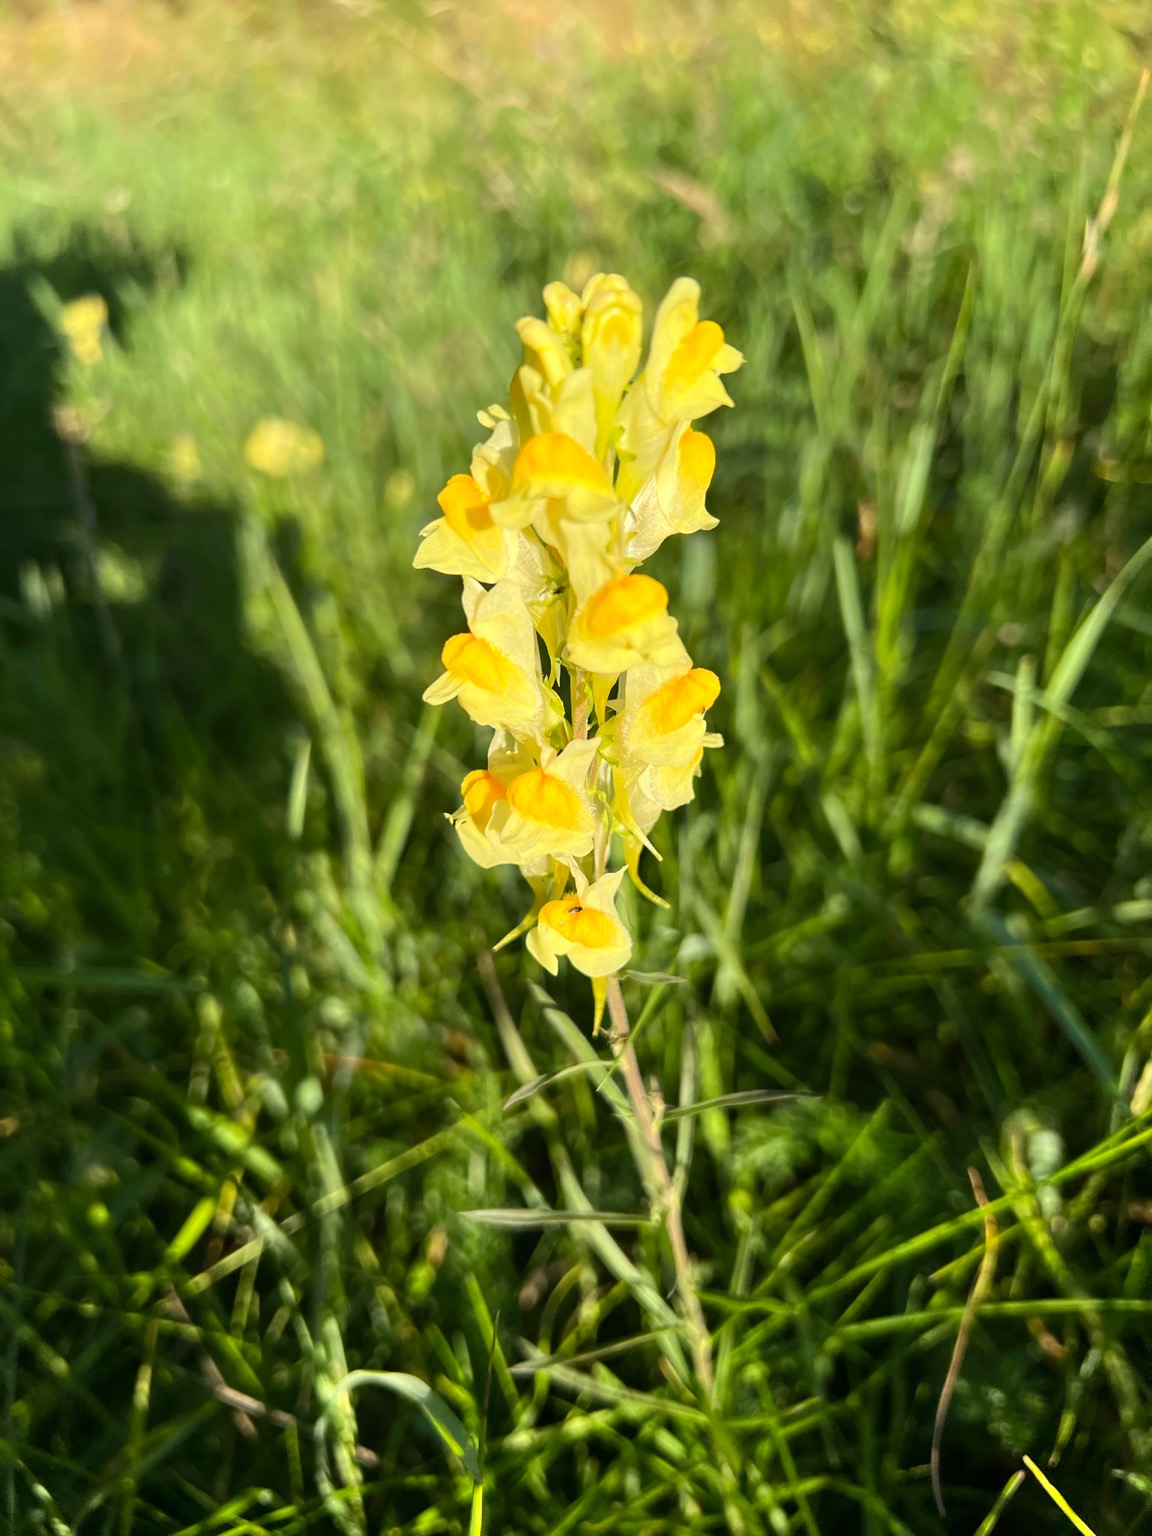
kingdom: Plantae
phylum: Tracheophyta
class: Magnoliopsida
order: Lamiales
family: Plantaginaceae
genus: Linaria
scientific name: Linaria vulgaris
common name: Almindelig torskemund
